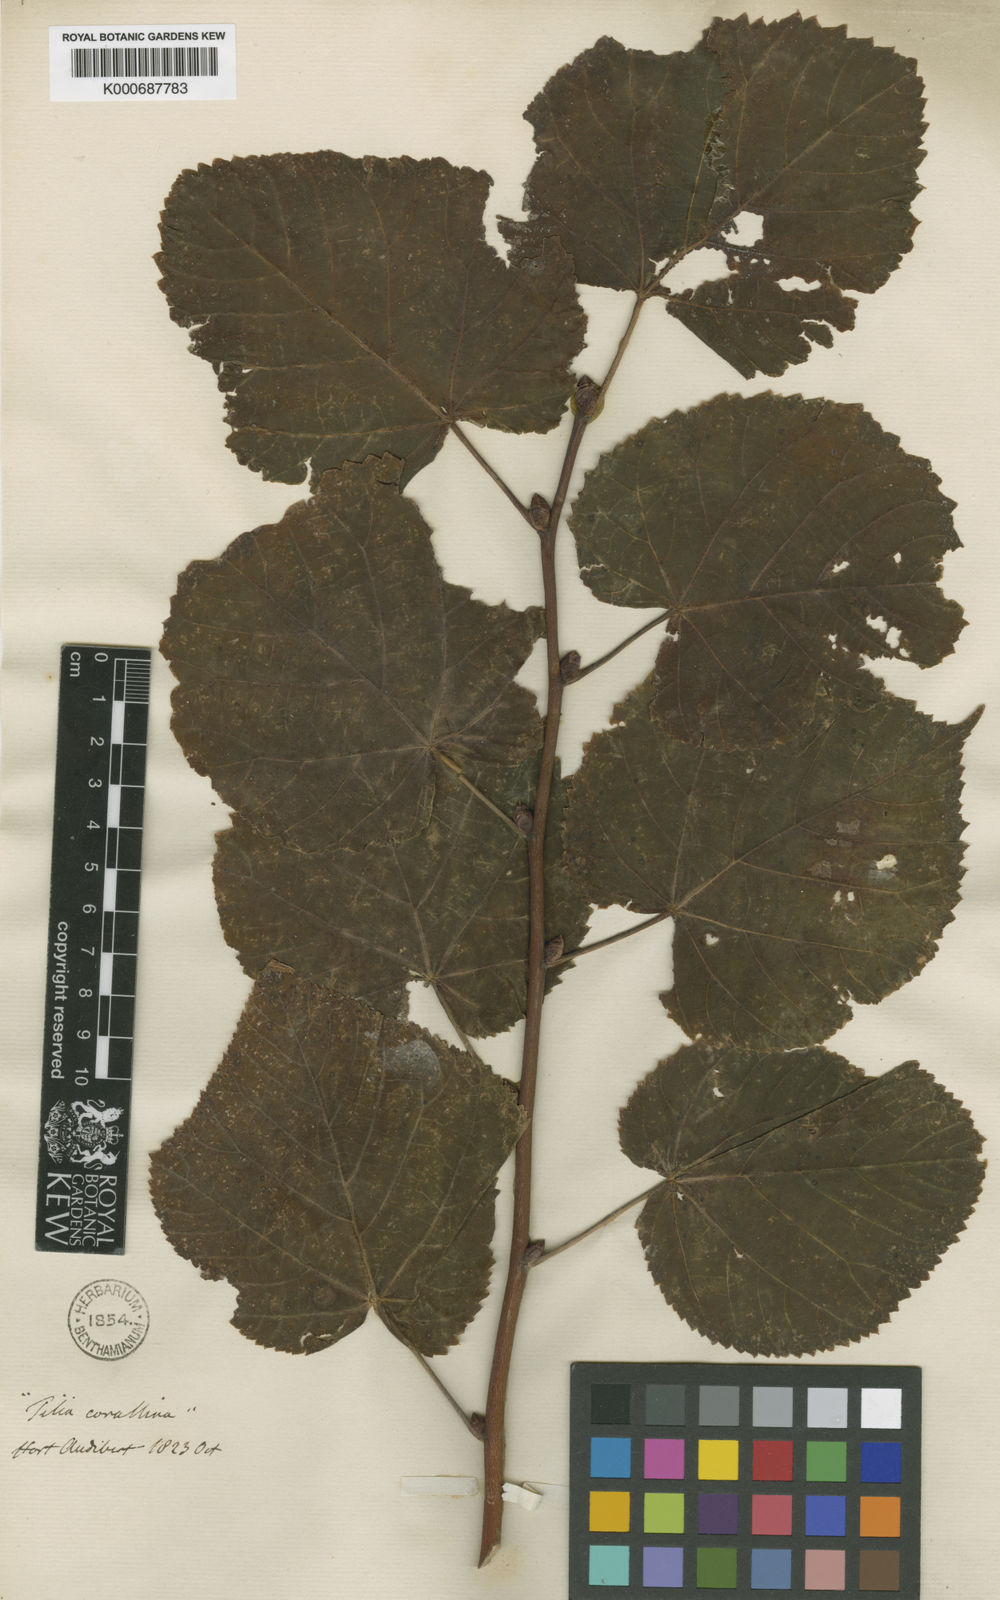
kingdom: Plantae
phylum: Tracheophyta
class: Magnoliopsida
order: Malvales
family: Malvaceae
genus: Tilia
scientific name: Tilia platyphyllos
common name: Large-leaved lime
